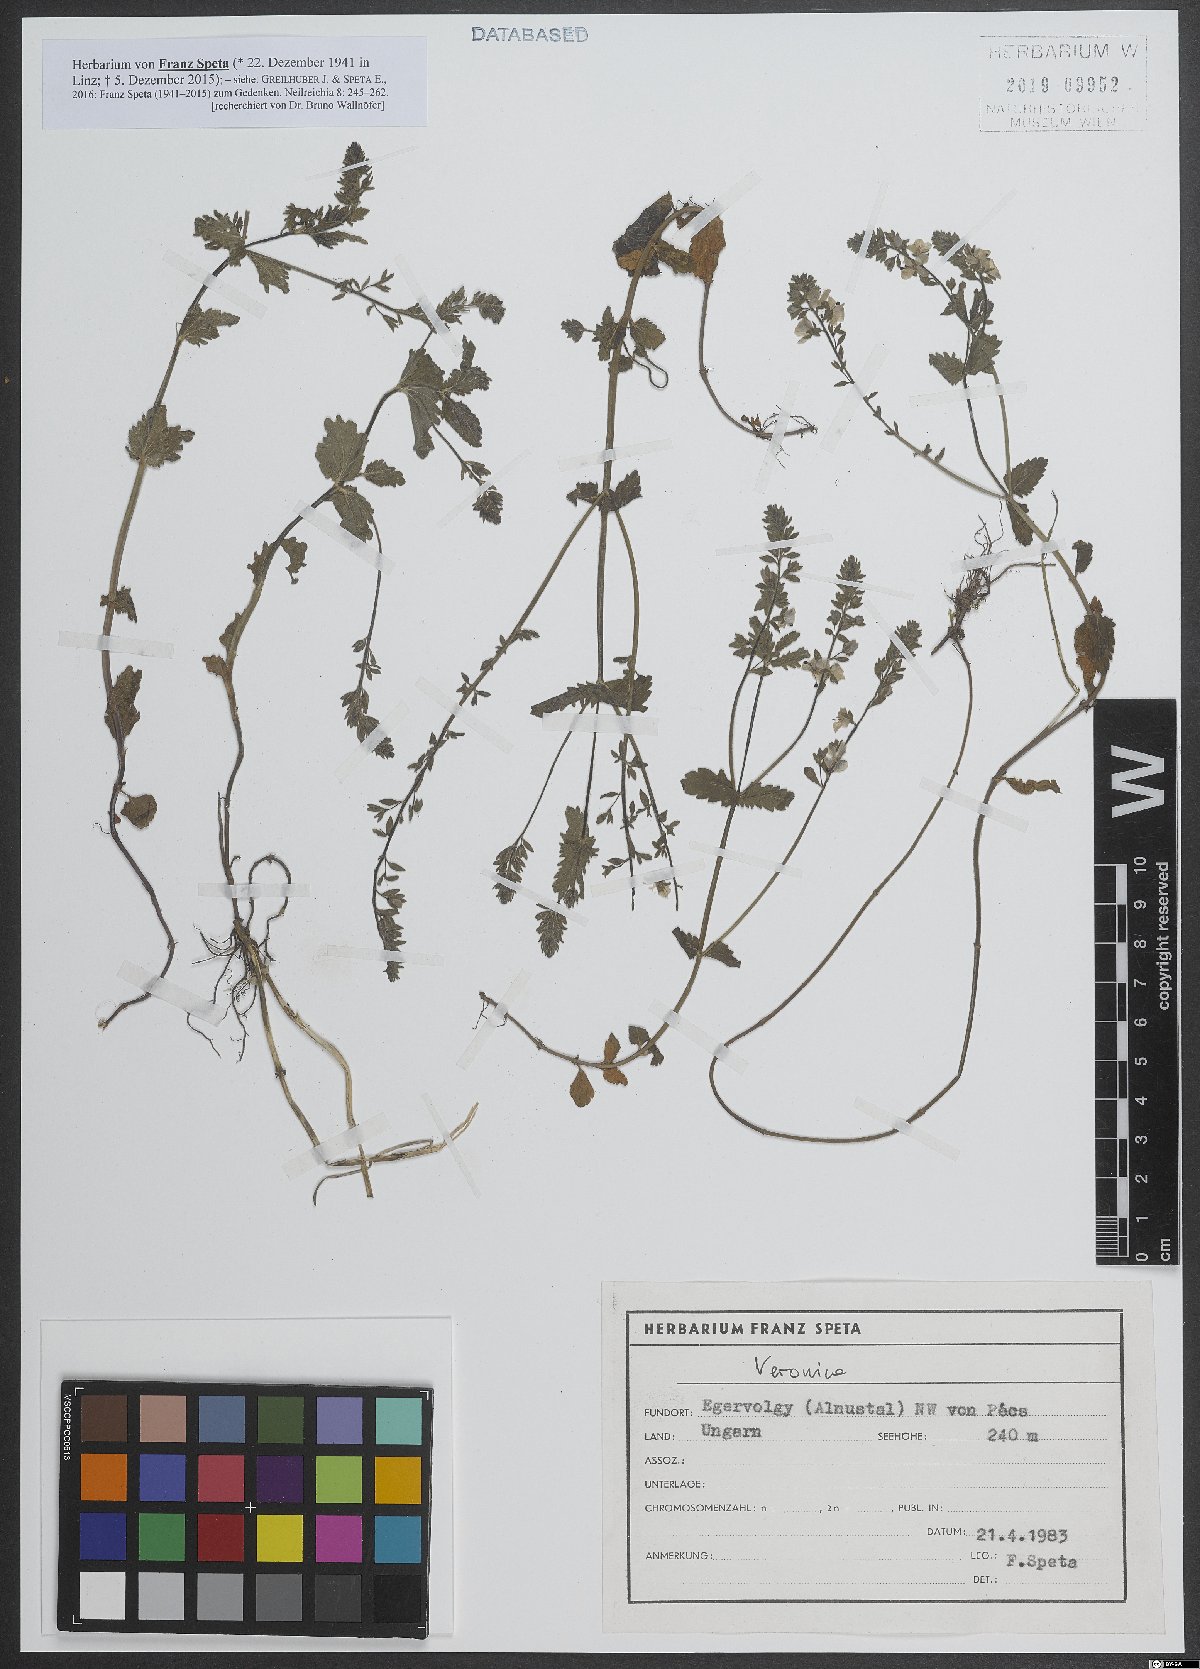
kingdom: Plantae
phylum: Tracheophyta
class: Magnoliopsida
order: Lamiales
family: Plantaginaceae
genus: Veronica
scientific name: Veronica
